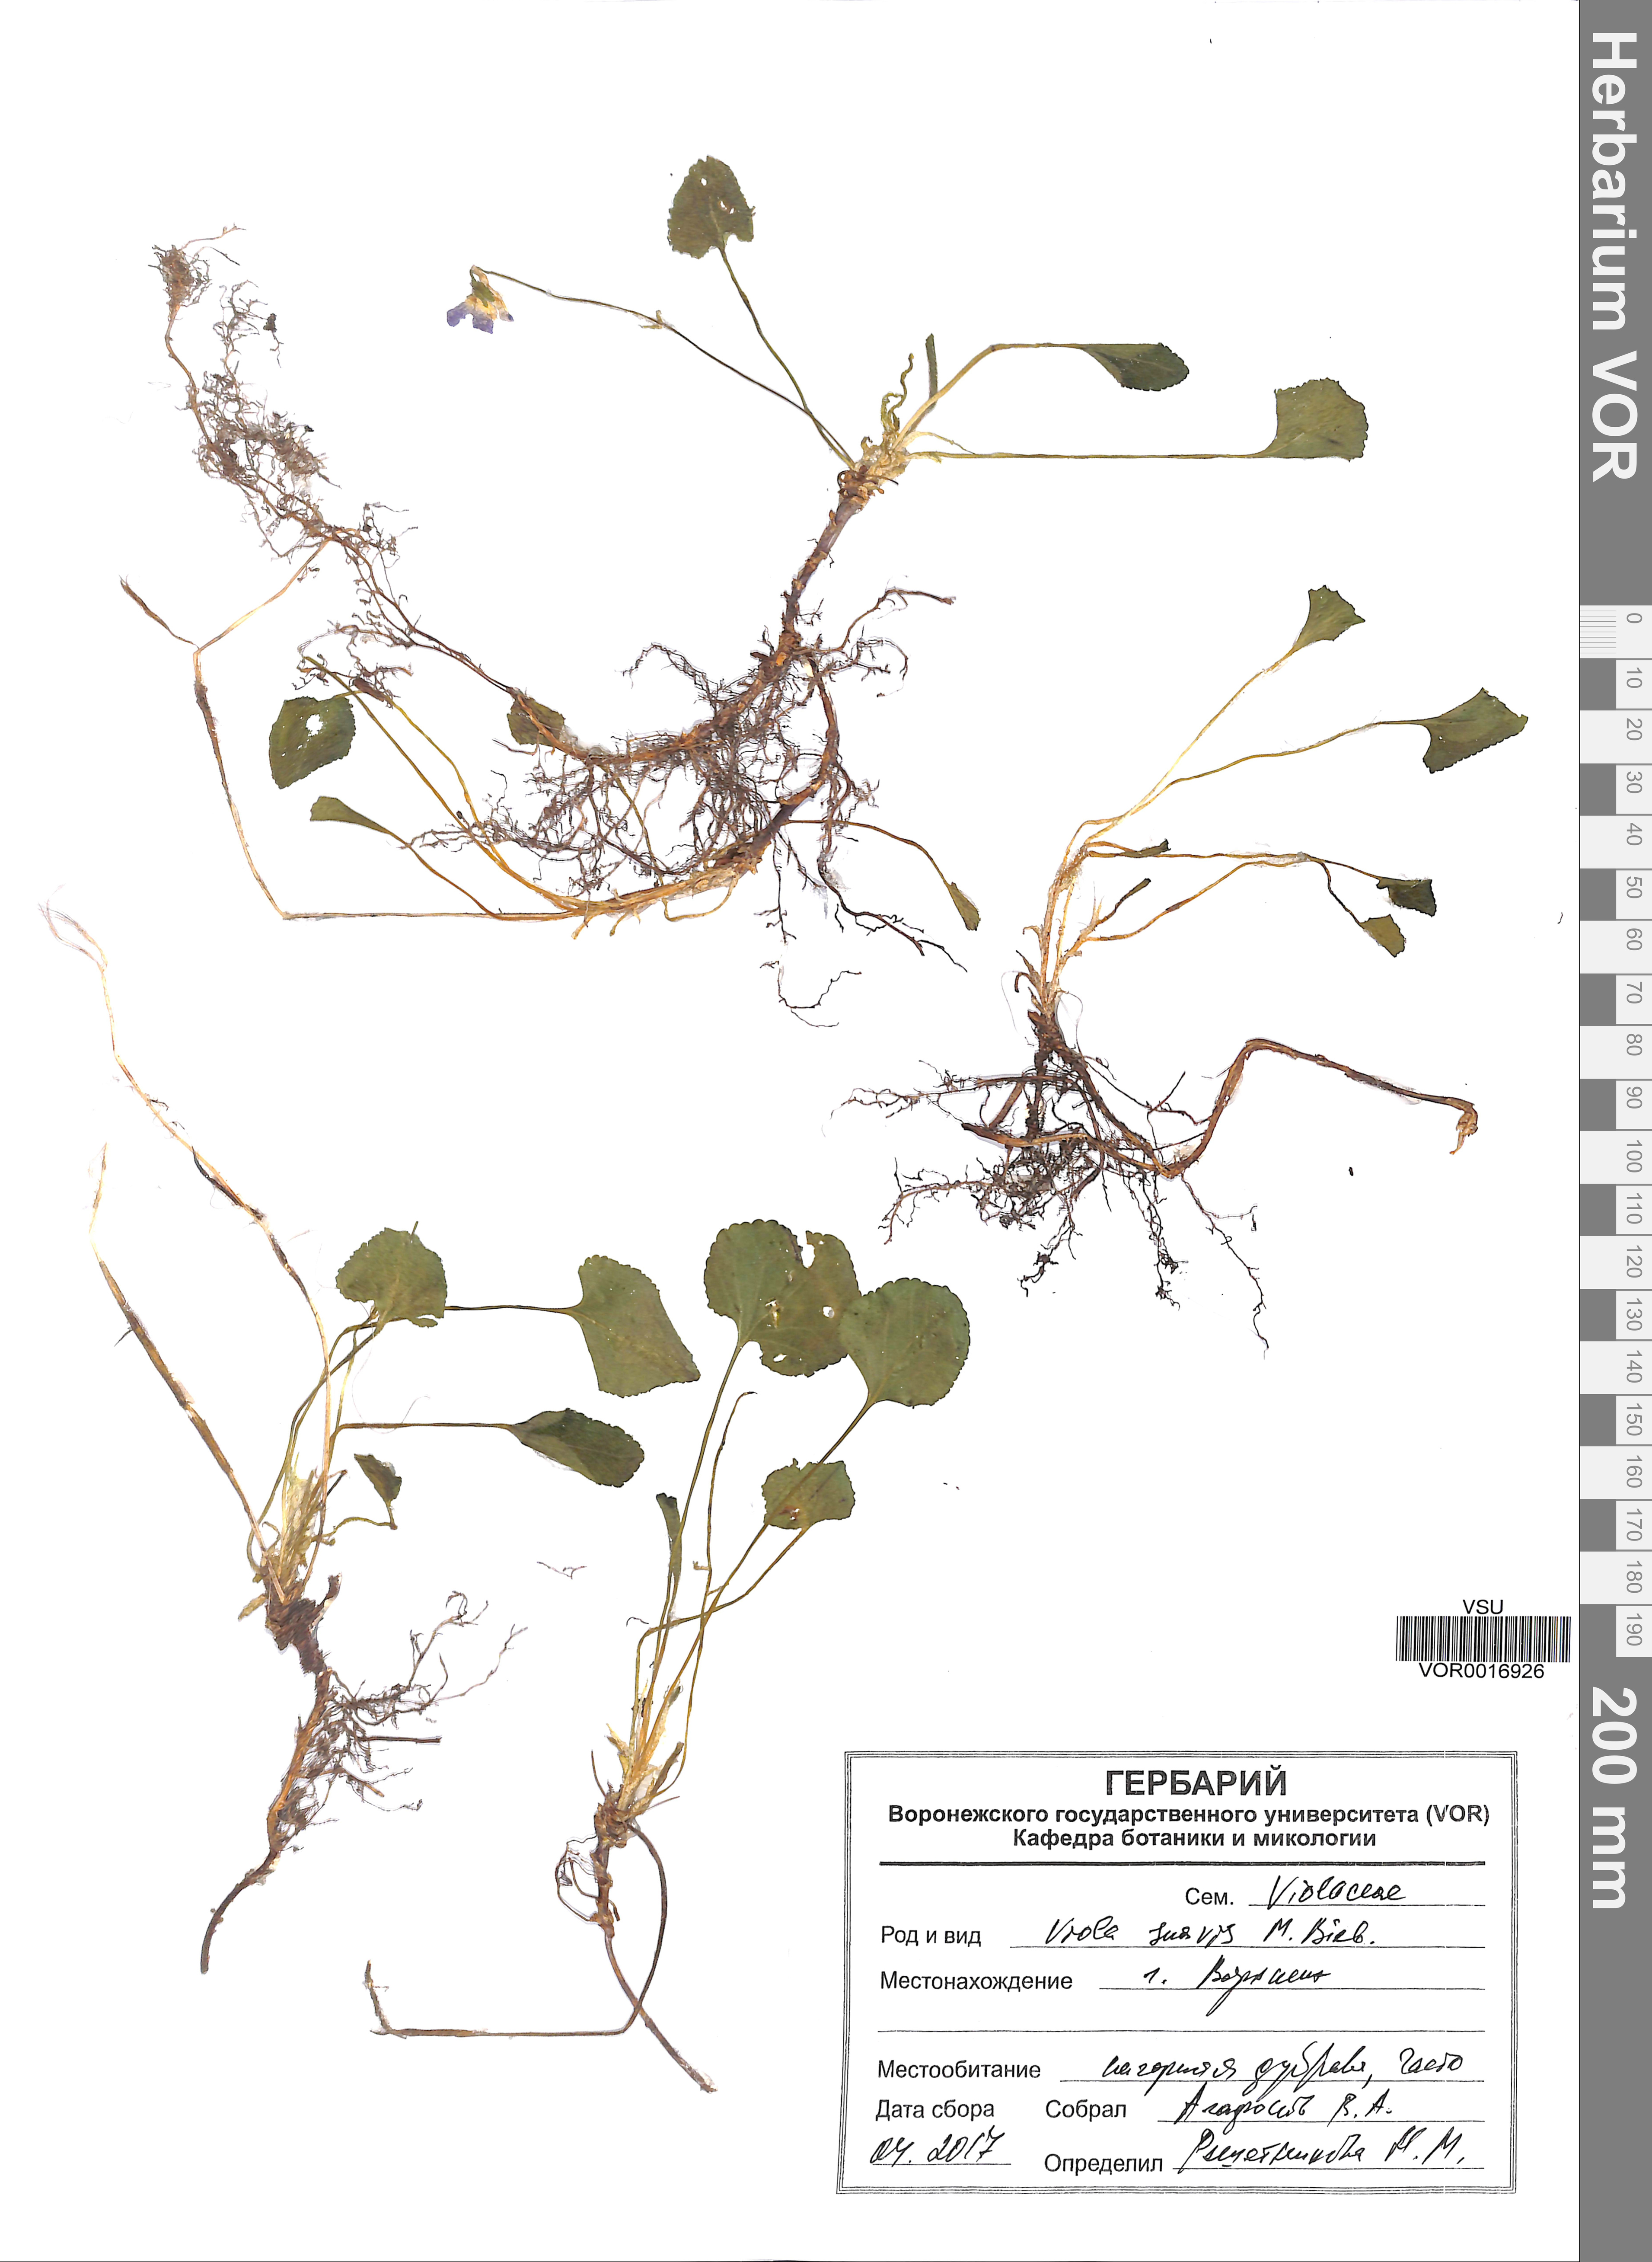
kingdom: Plantae
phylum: Tracheophyta
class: Magnoliopsida
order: Malpighiales
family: Violaceae
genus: Viola
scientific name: Viola suavis
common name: Russian violet
